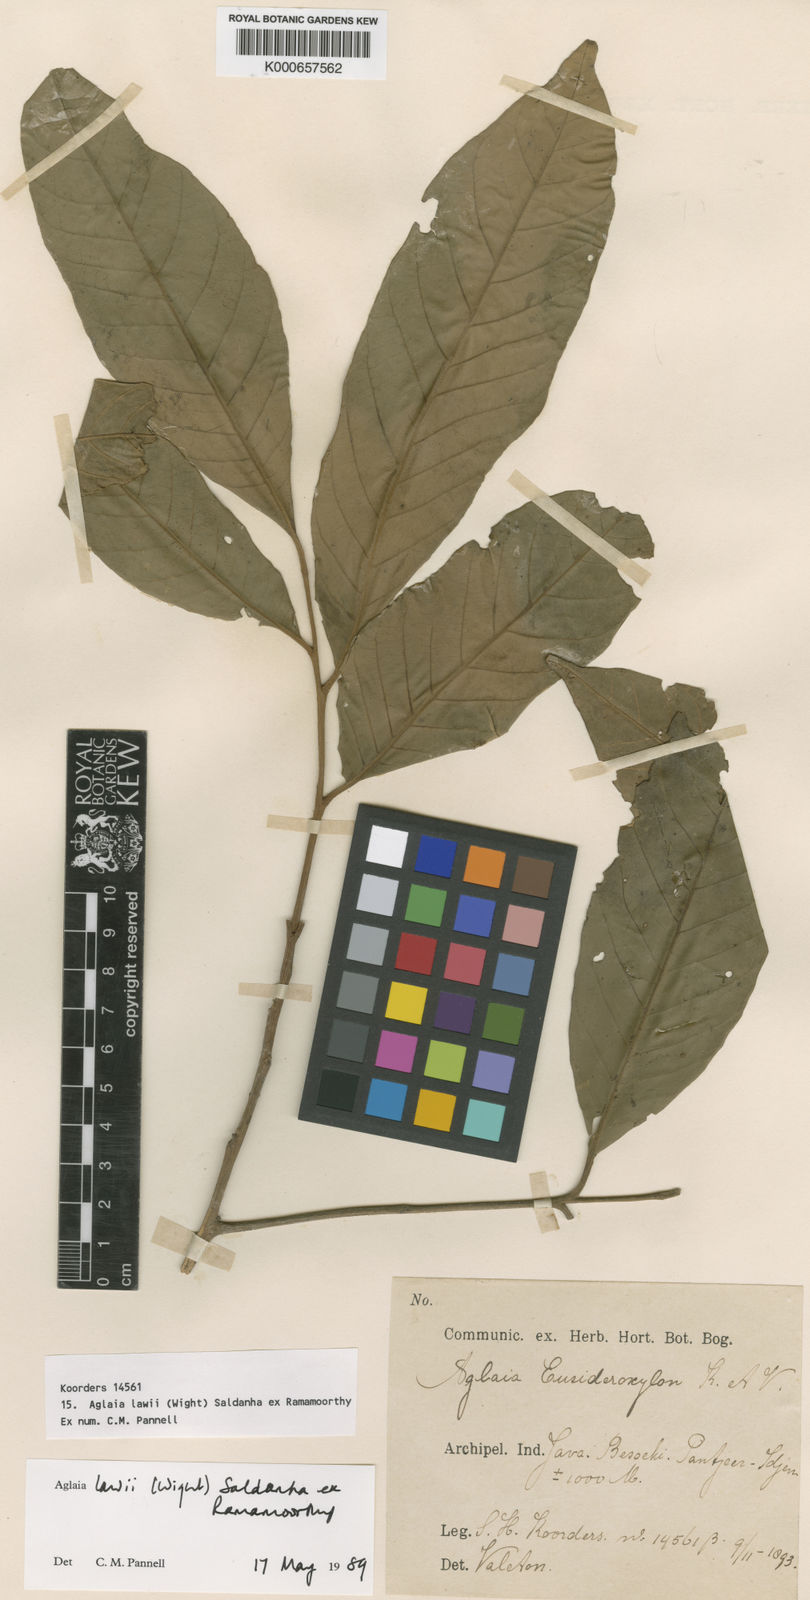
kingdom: Plantae
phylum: Tracheophyta
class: Magnoliopsida
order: Sapindales
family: Meliaceae
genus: Aglaia
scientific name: Aglaia lawii
